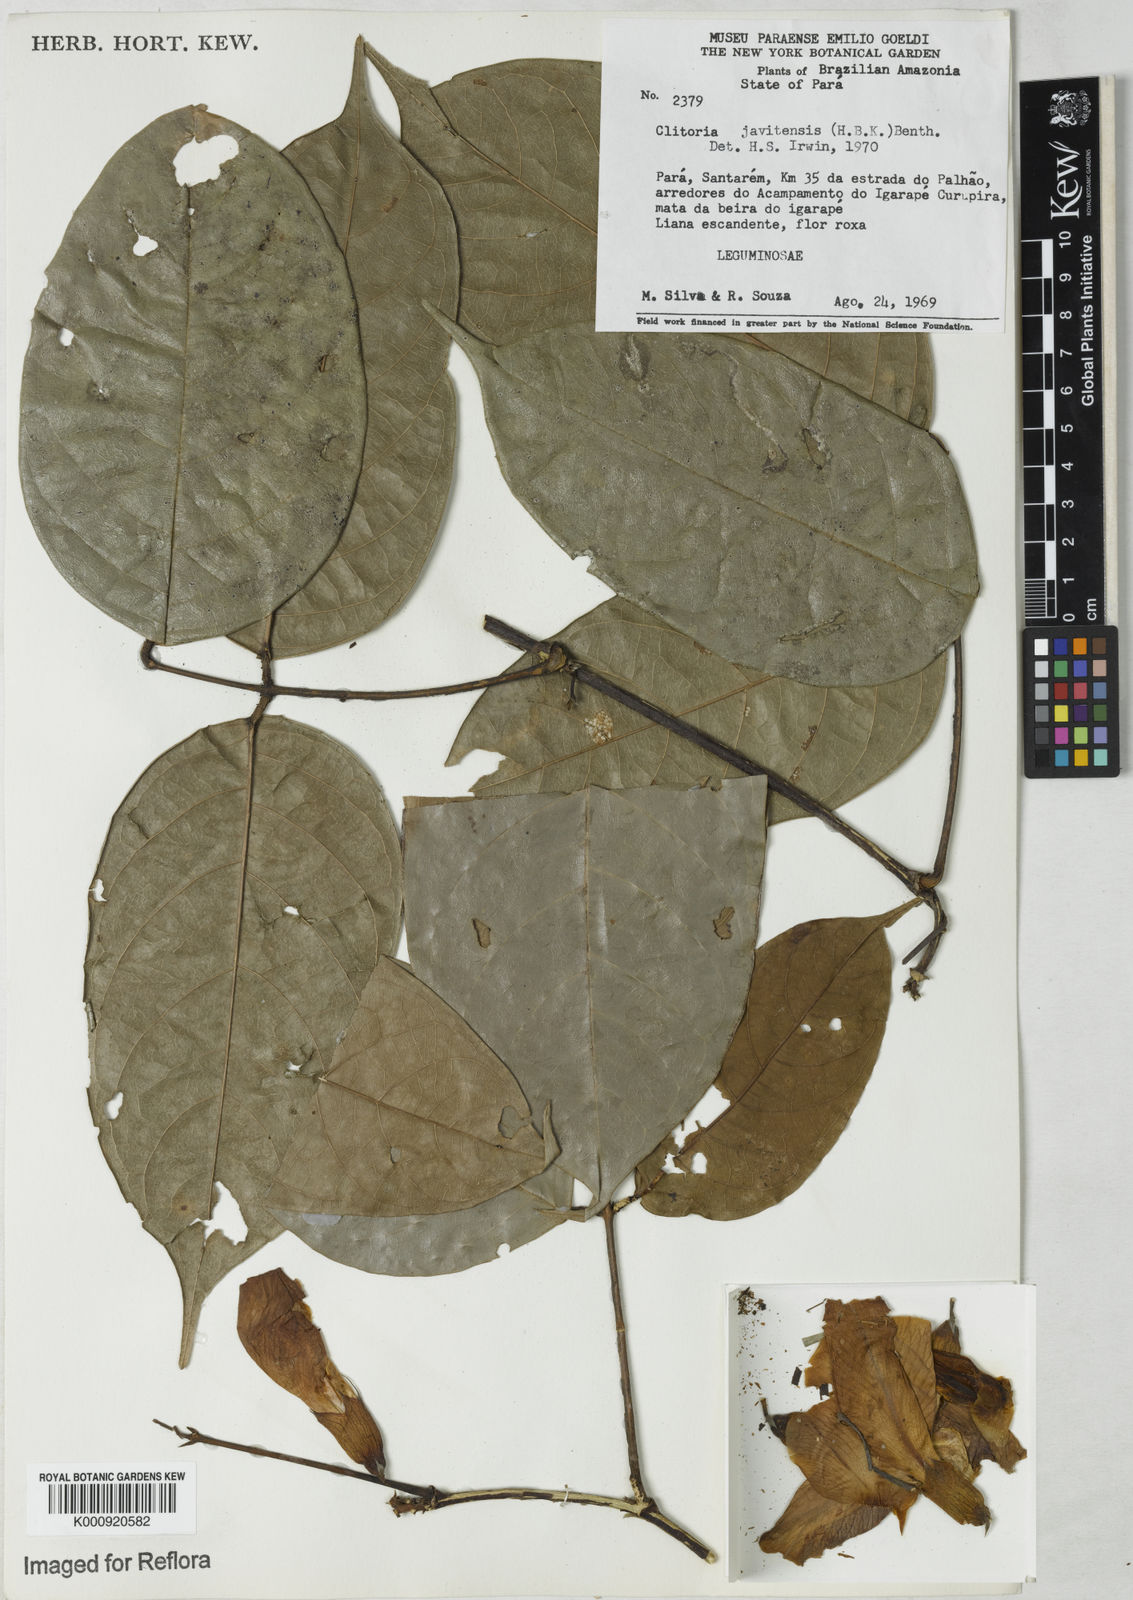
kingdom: Plantae
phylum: Tracheophyta
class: Magnoliopsida
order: Fabales
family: Fabaceae
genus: Clitoria
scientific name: Clitoria javitensis
